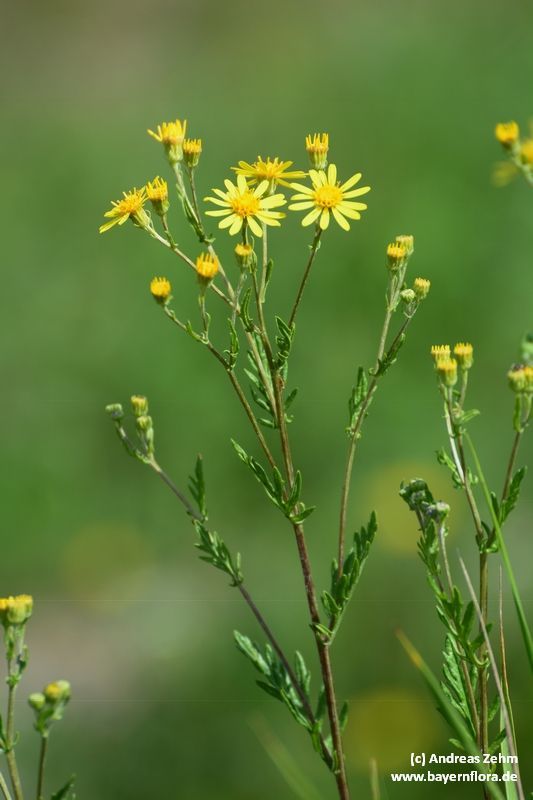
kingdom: Plantae
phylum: Tracheophyta
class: Magnoliopsida
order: Asterales
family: Asteraceae
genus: Jacobaea
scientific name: Jacobaea erucifolia
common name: Hoary ragwort
